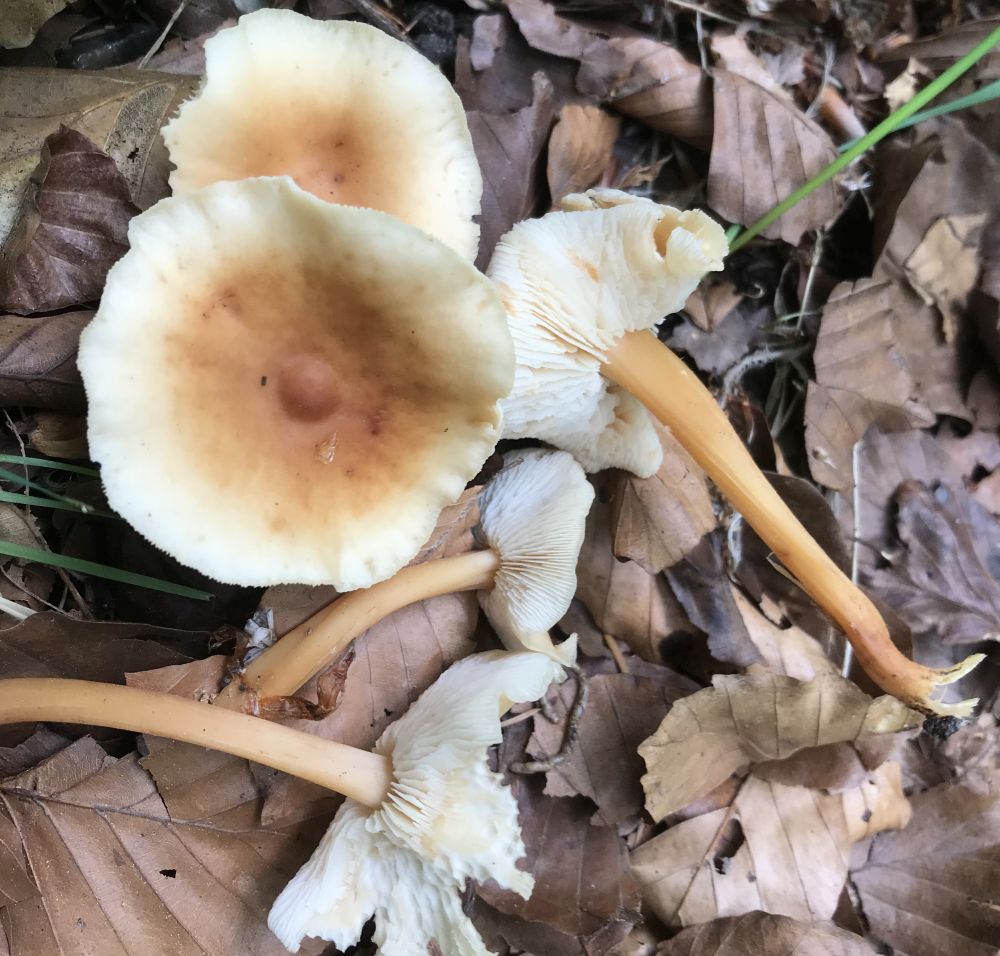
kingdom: Fungi
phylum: Basidiomycota
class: Agaricomycetes
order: Agaricales
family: Omphalotaceae
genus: Gymnopus
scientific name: Gymnopus dryophilus
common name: løv-fladhat
